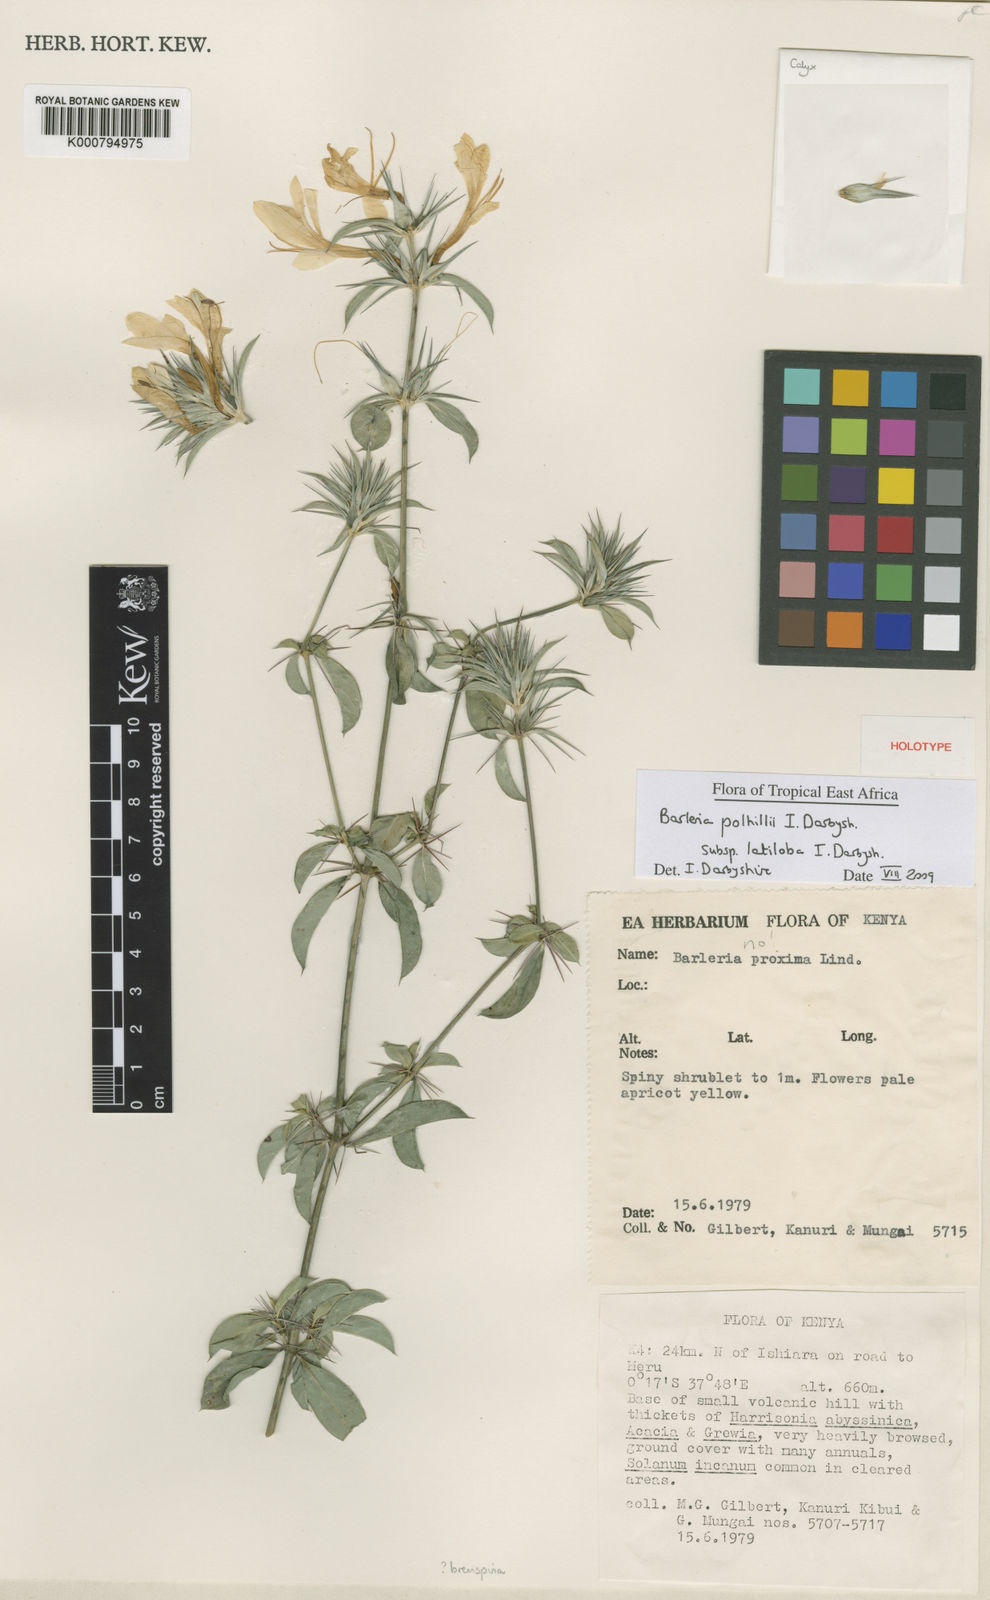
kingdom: Plantae
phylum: Tracheophyta
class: Magnoliopsida
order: Lamiales
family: Acanthaceae
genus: Barleria
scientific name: Barleria polhillii
